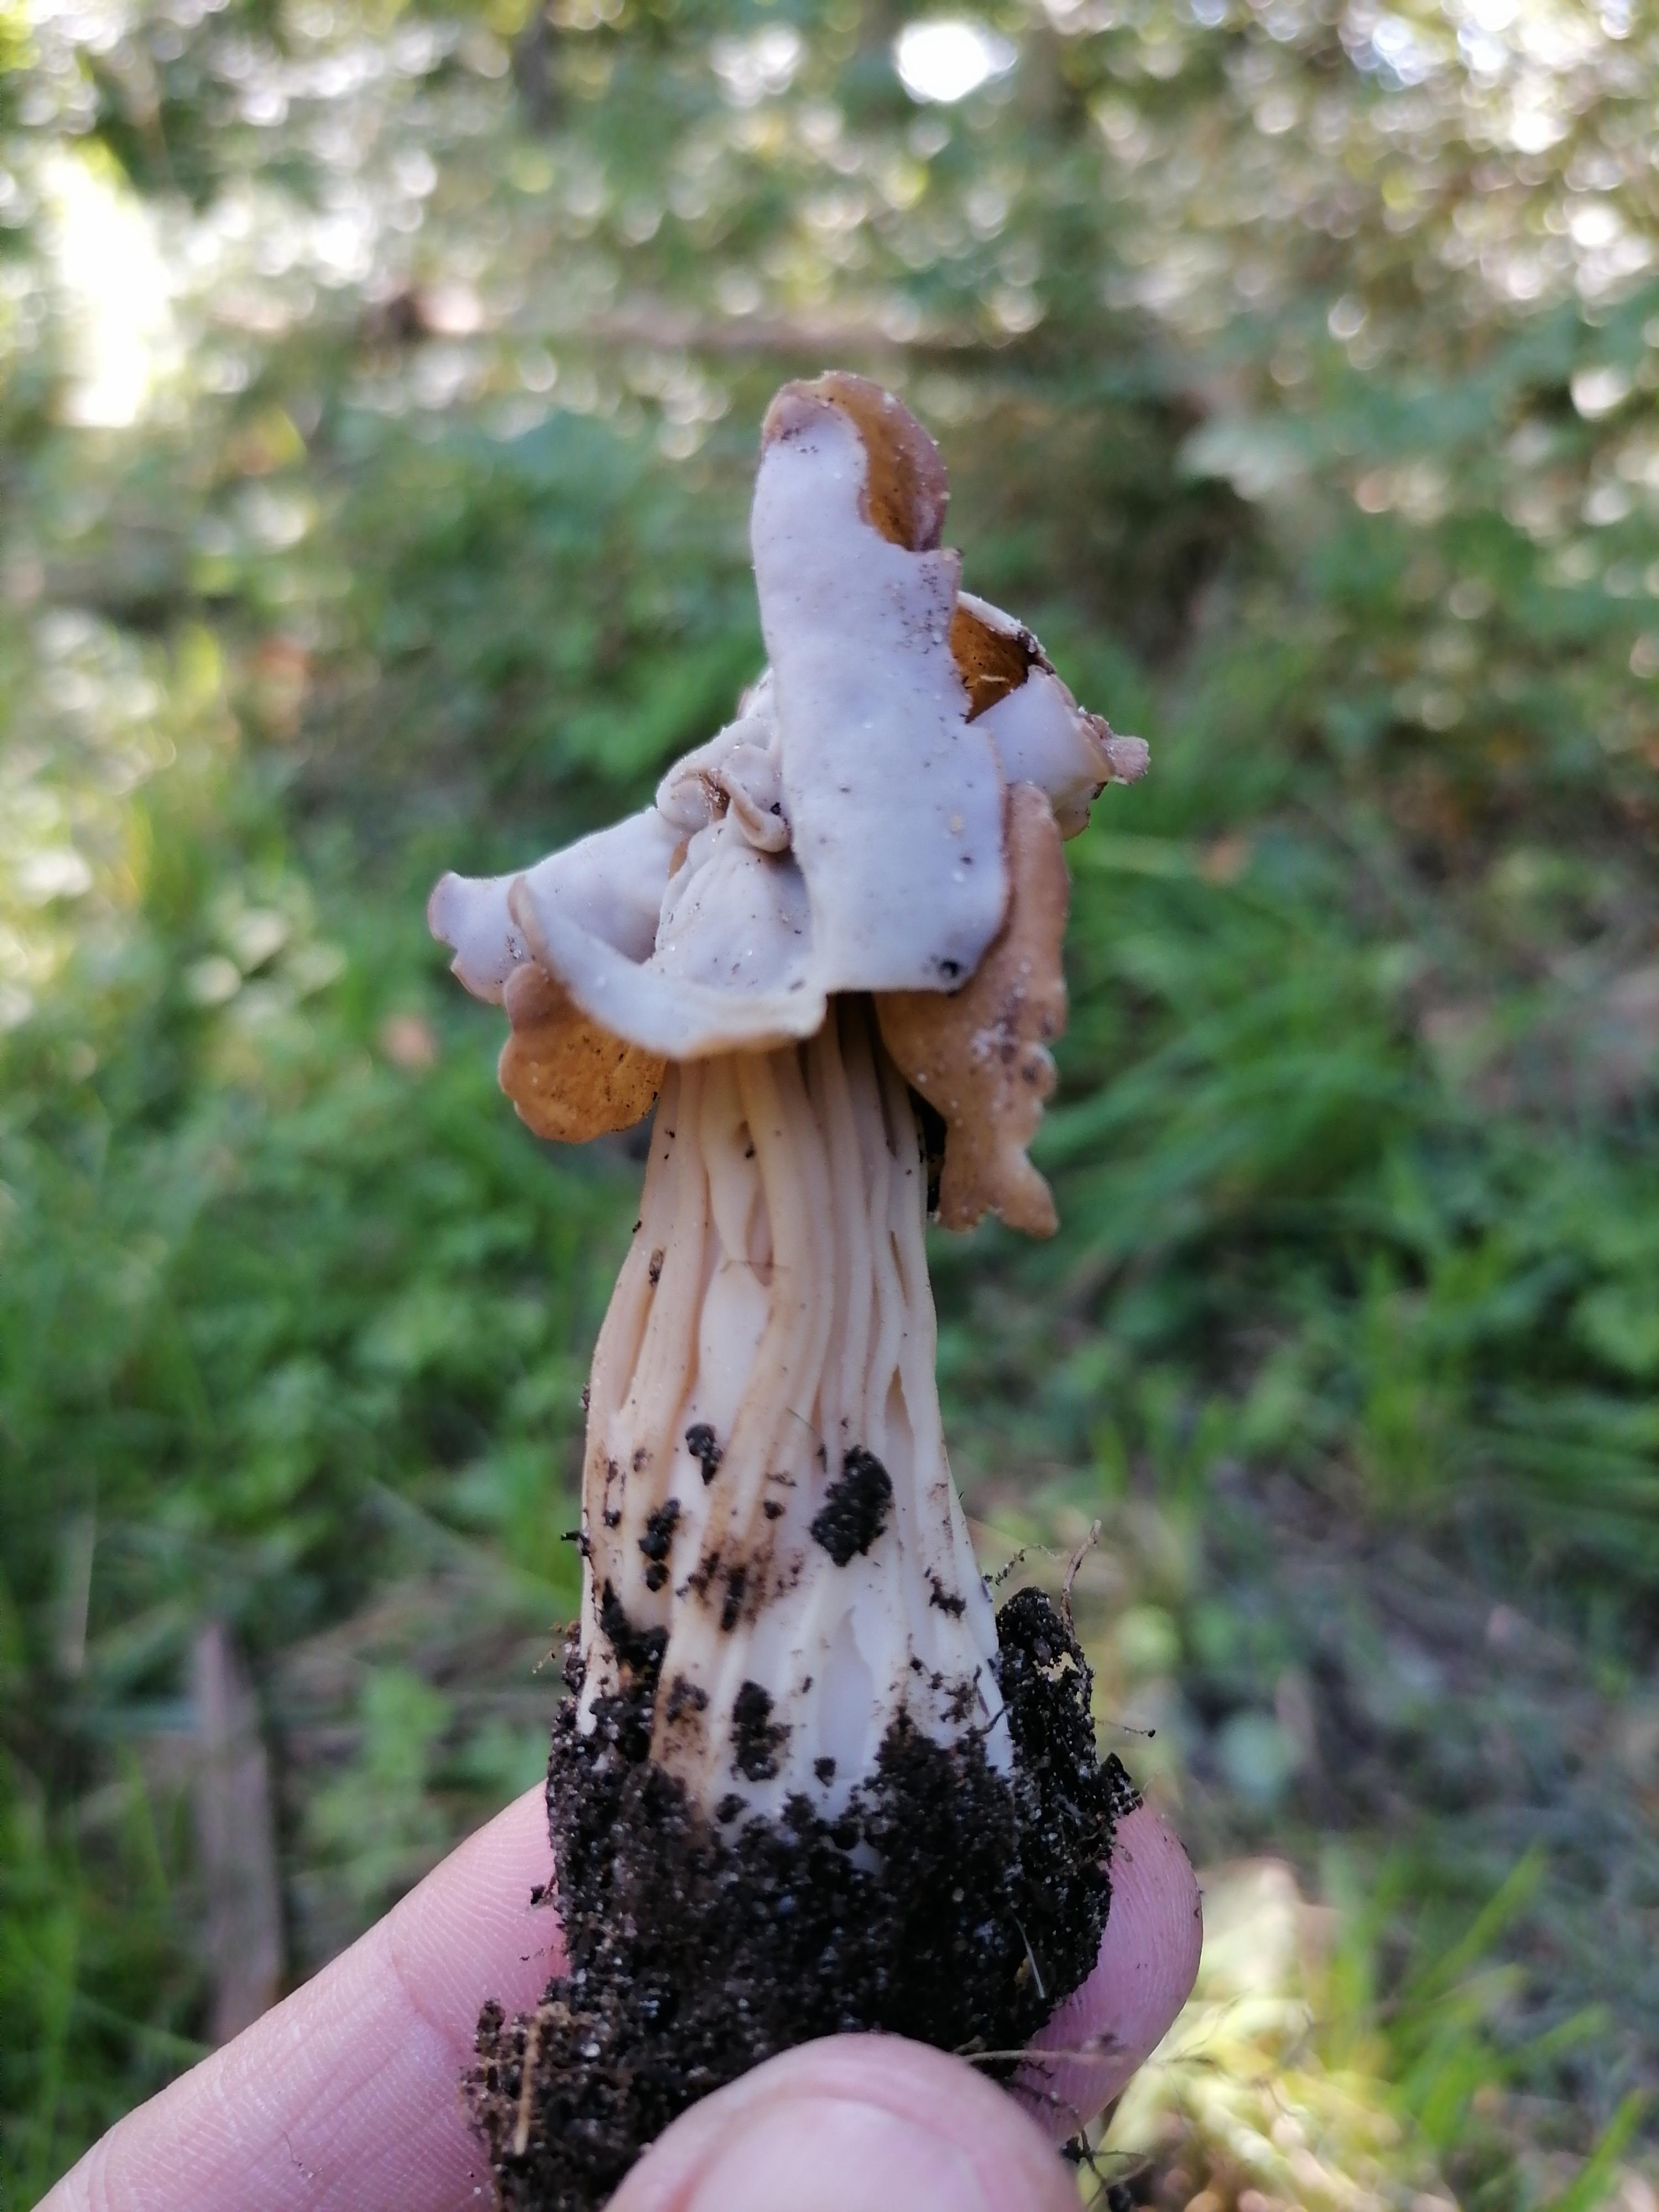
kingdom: Fungi
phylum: Ascomycota
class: Pezizomycetes
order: Pezizales
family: Helvellaceae
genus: Helvella
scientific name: Helvella crispa
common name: kruset foldhat
